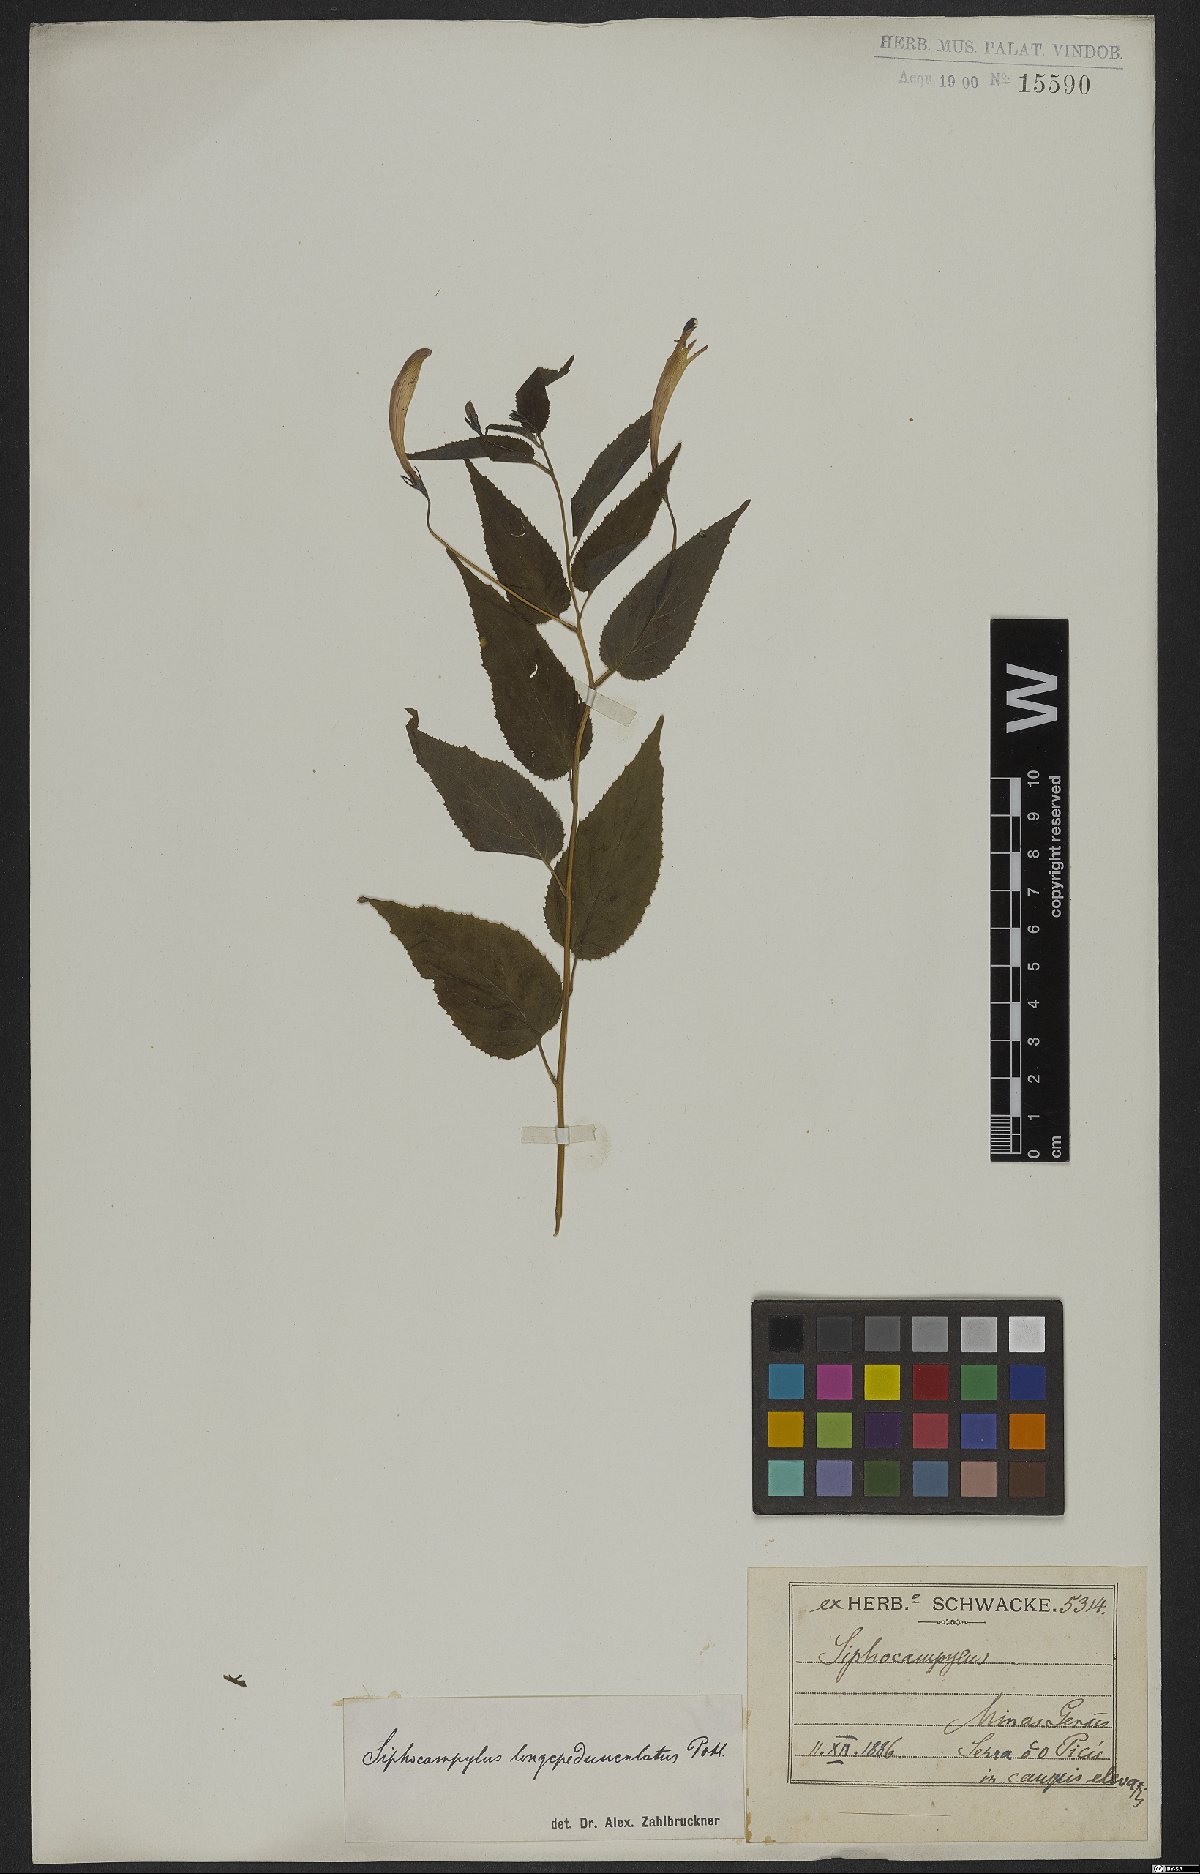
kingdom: Plantae
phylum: Tracheophyta
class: Magnoliopsida
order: Asterales
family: Campanulaceae
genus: Siphocampylus
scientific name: Siphocampylus longipedunculatus
